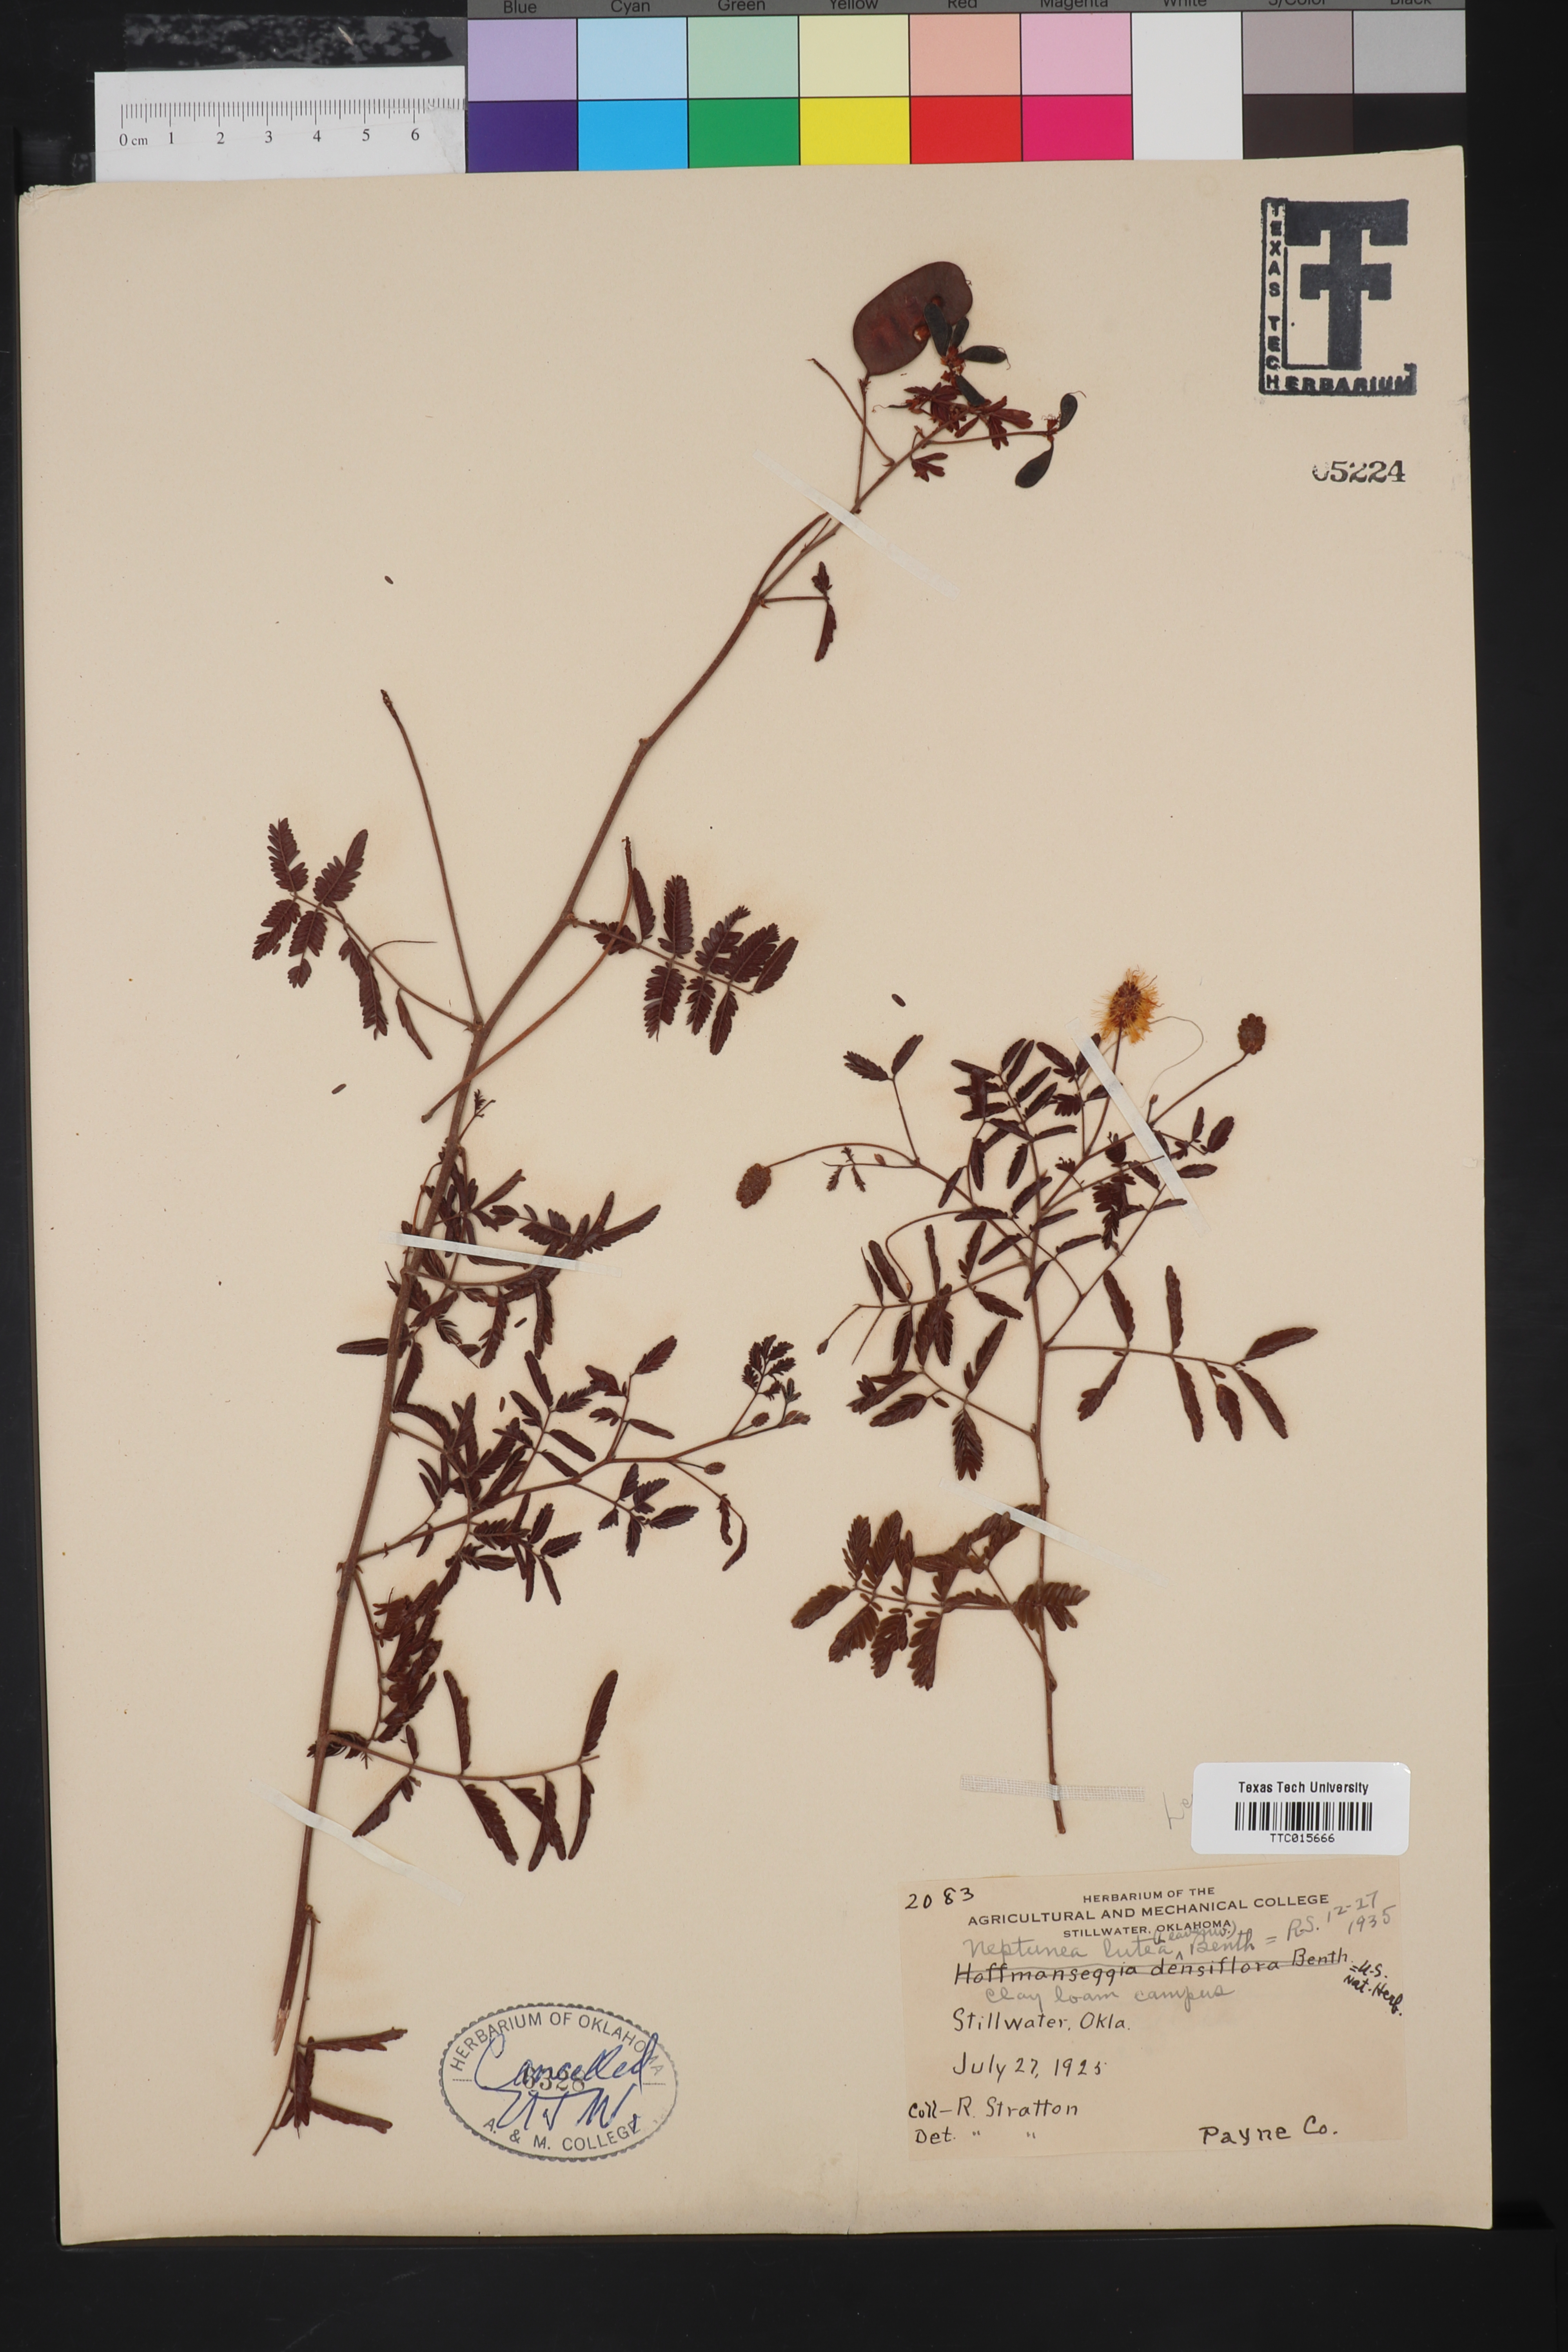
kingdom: Plantae
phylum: Tracheophyta
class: Magnoliopsida
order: Fabales
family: Fabaceae
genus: Neptunia
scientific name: Neptunia lutea
